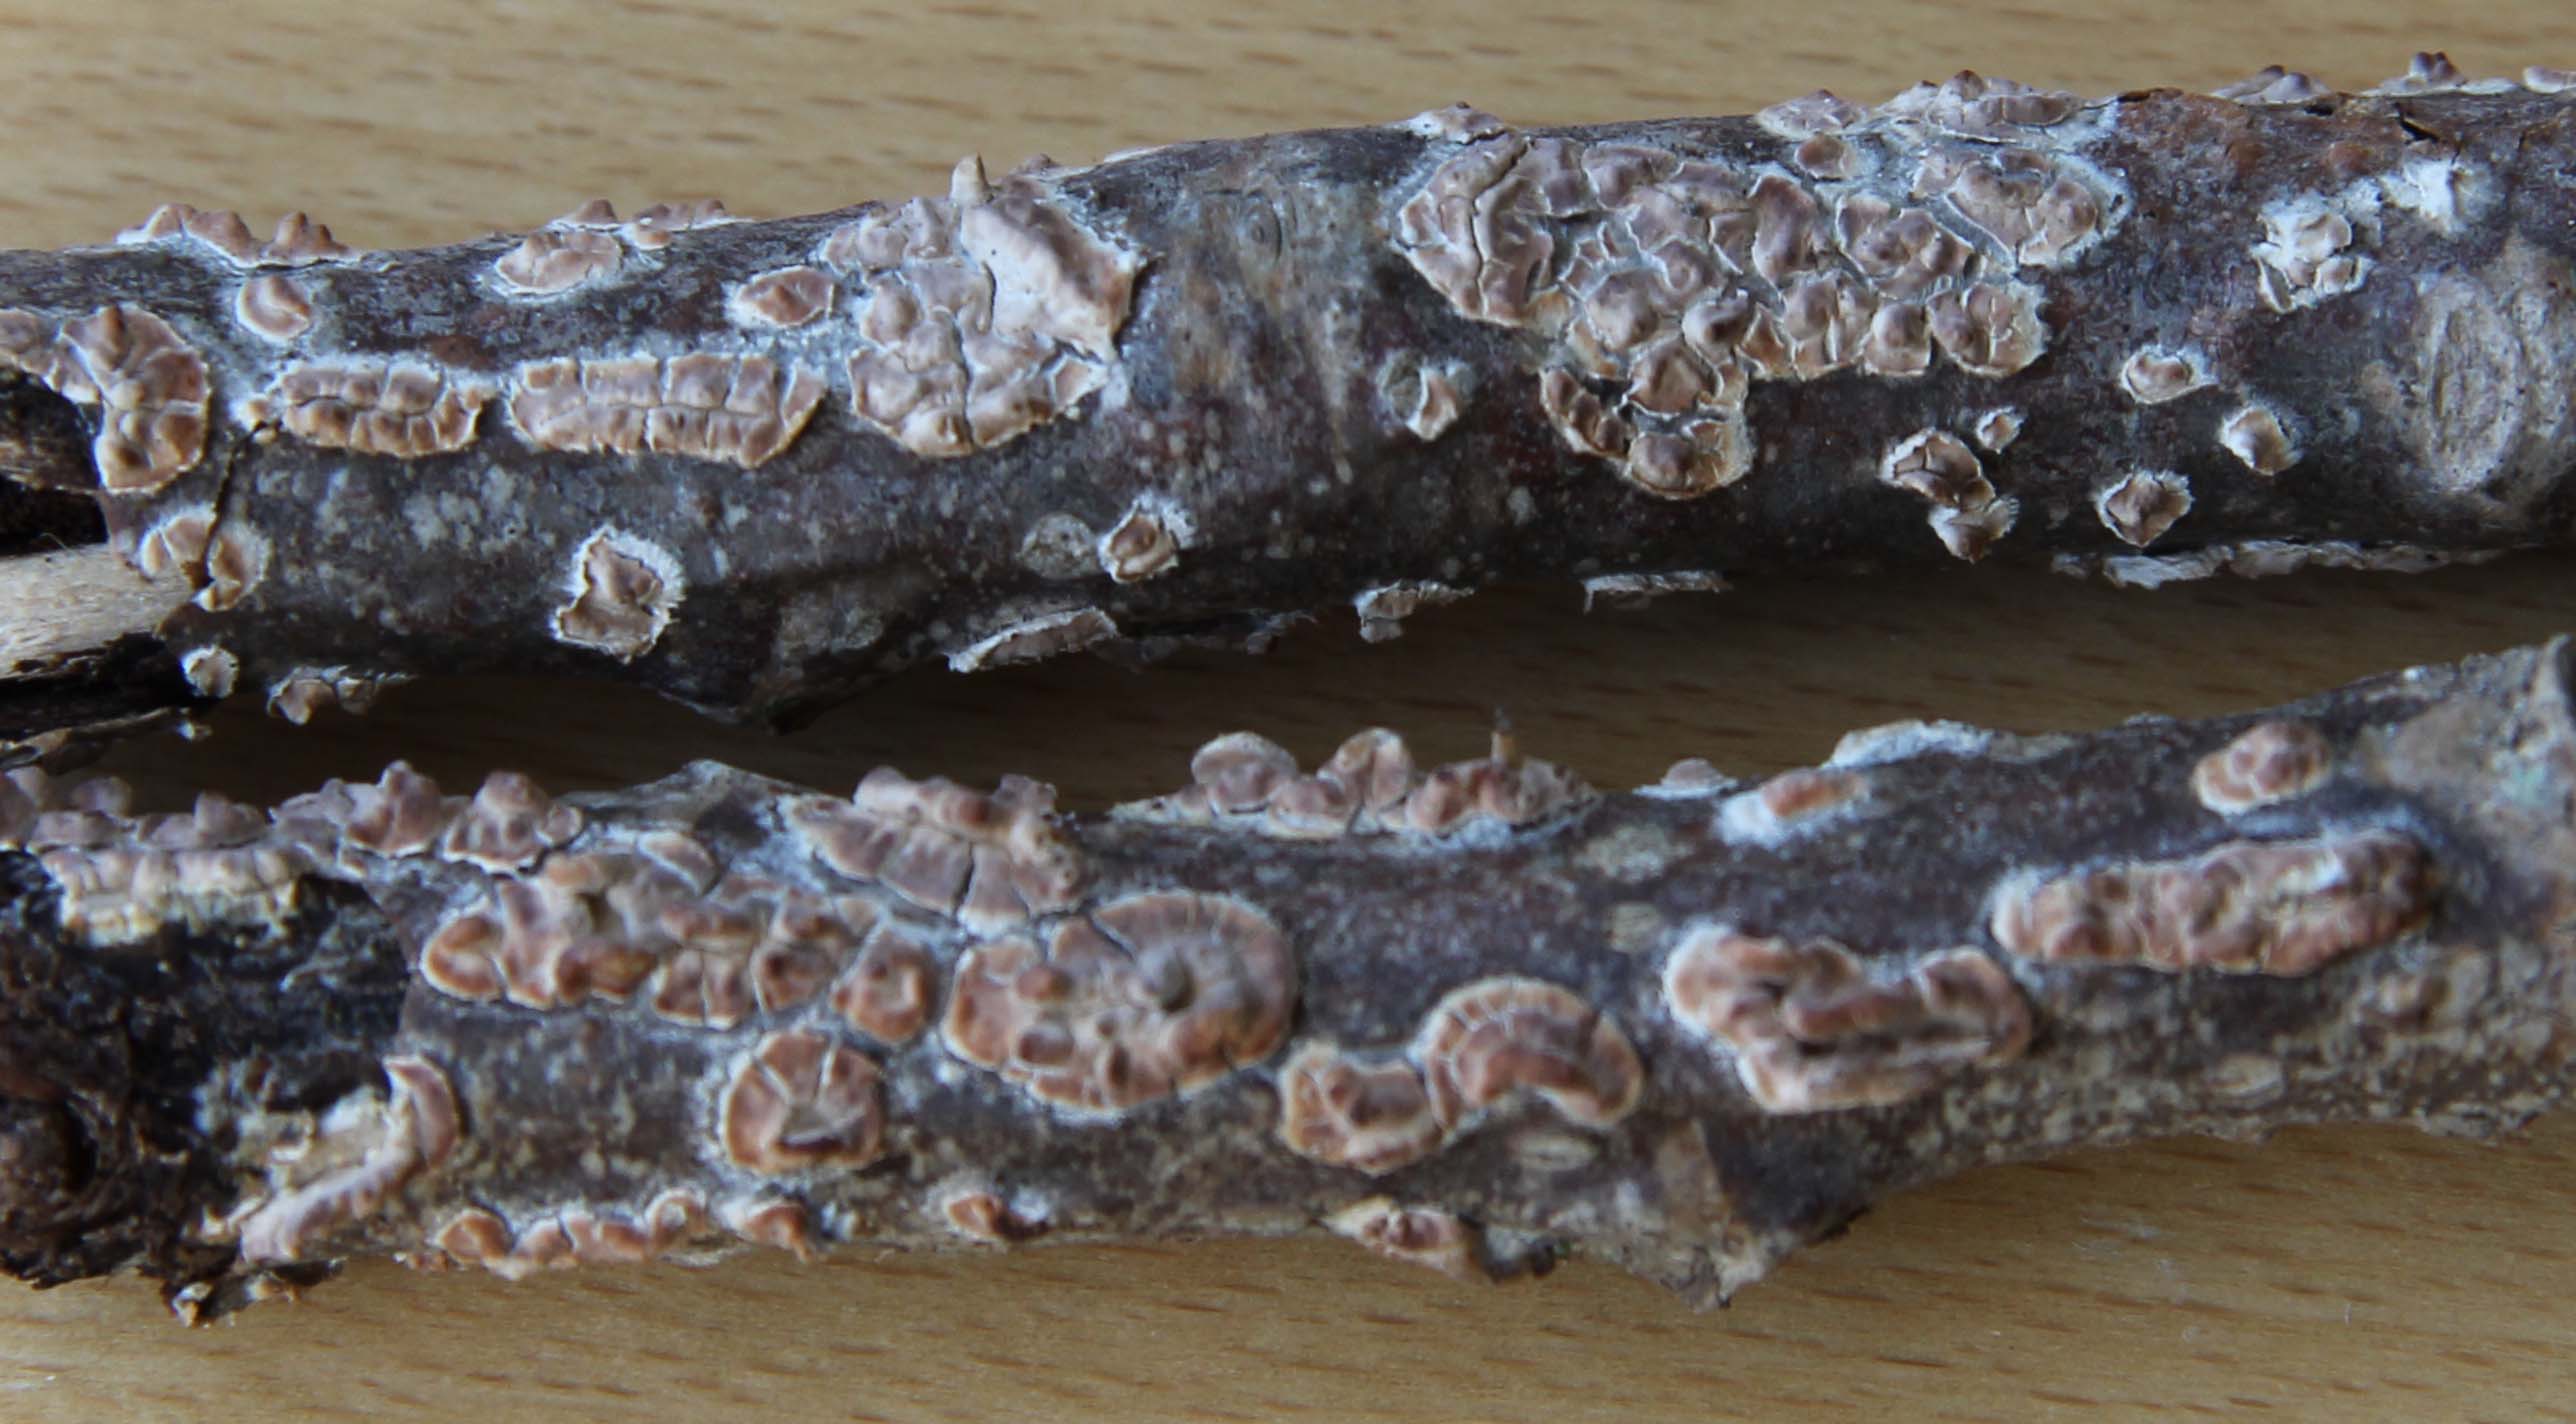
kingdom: Fungi
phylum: Basidiomycota
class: Agaricomycetes
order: Agaricales
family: Physalacriaceae
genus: Cylindrobasidium
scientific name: Cylindrobasidium evolvens
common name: sprækkehinde
